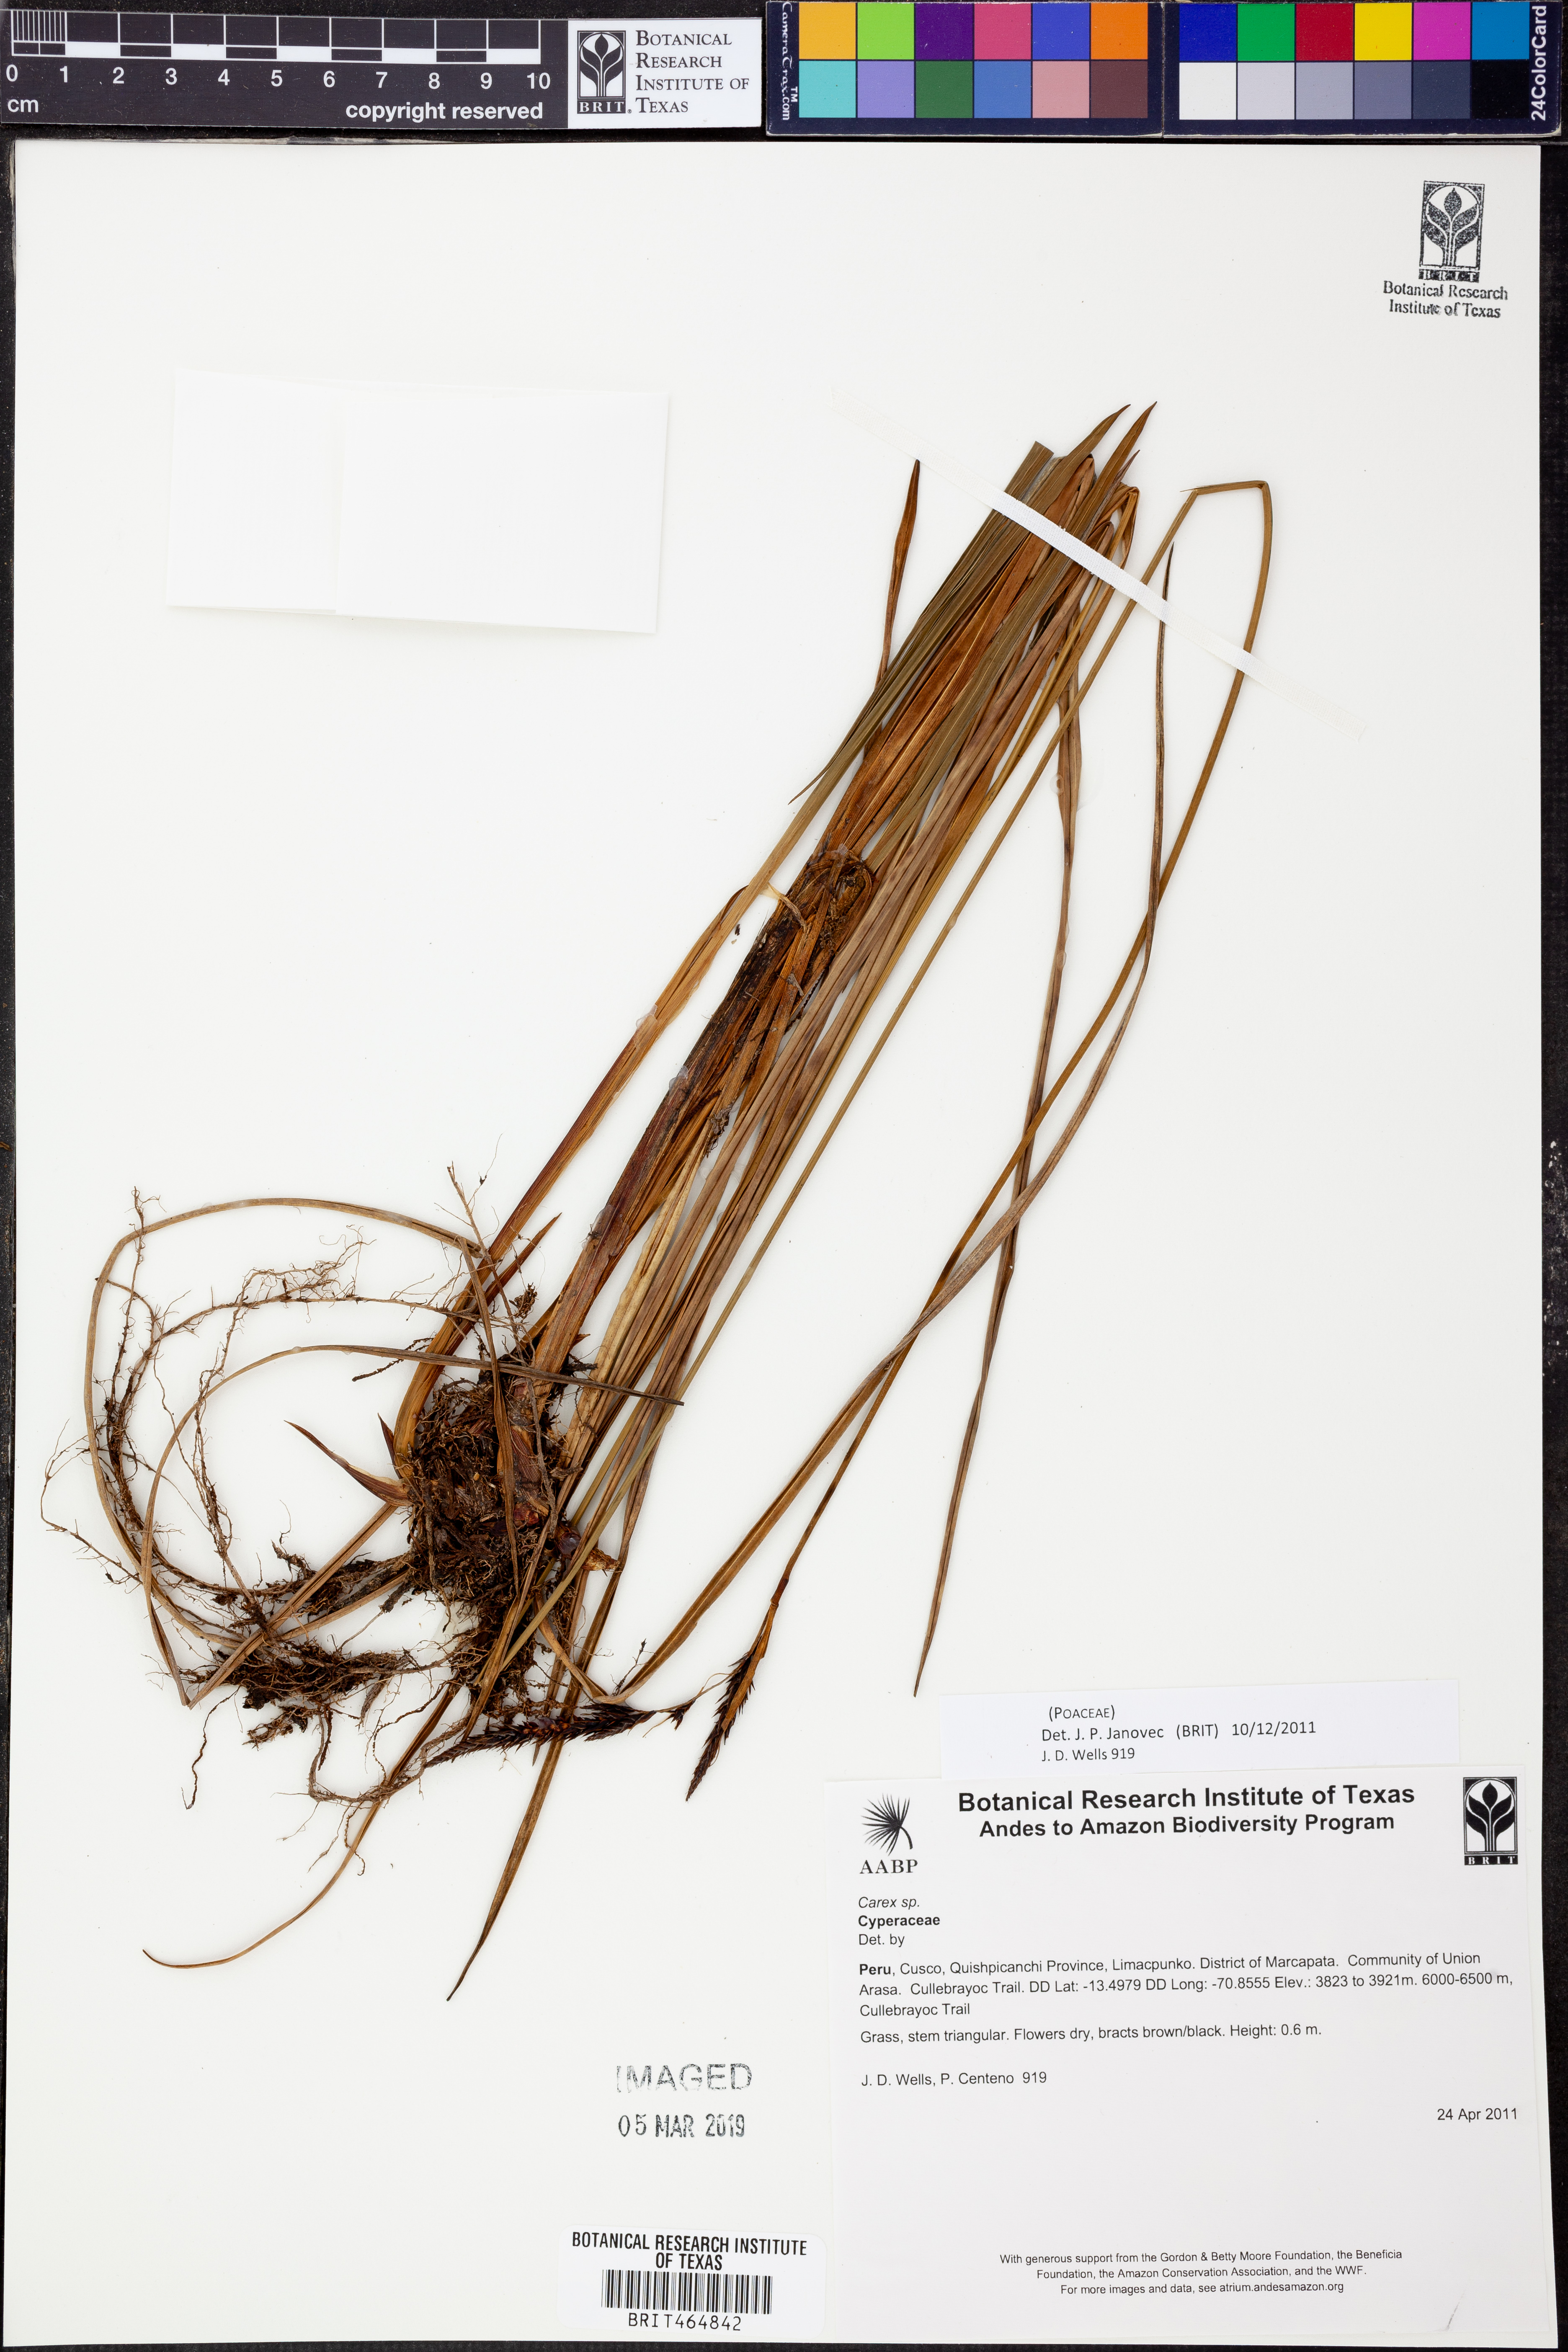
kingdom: Plantae
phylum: Tracheophyta
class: Liliopsida
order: Poales
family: Poaceae
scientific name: Poaceae
